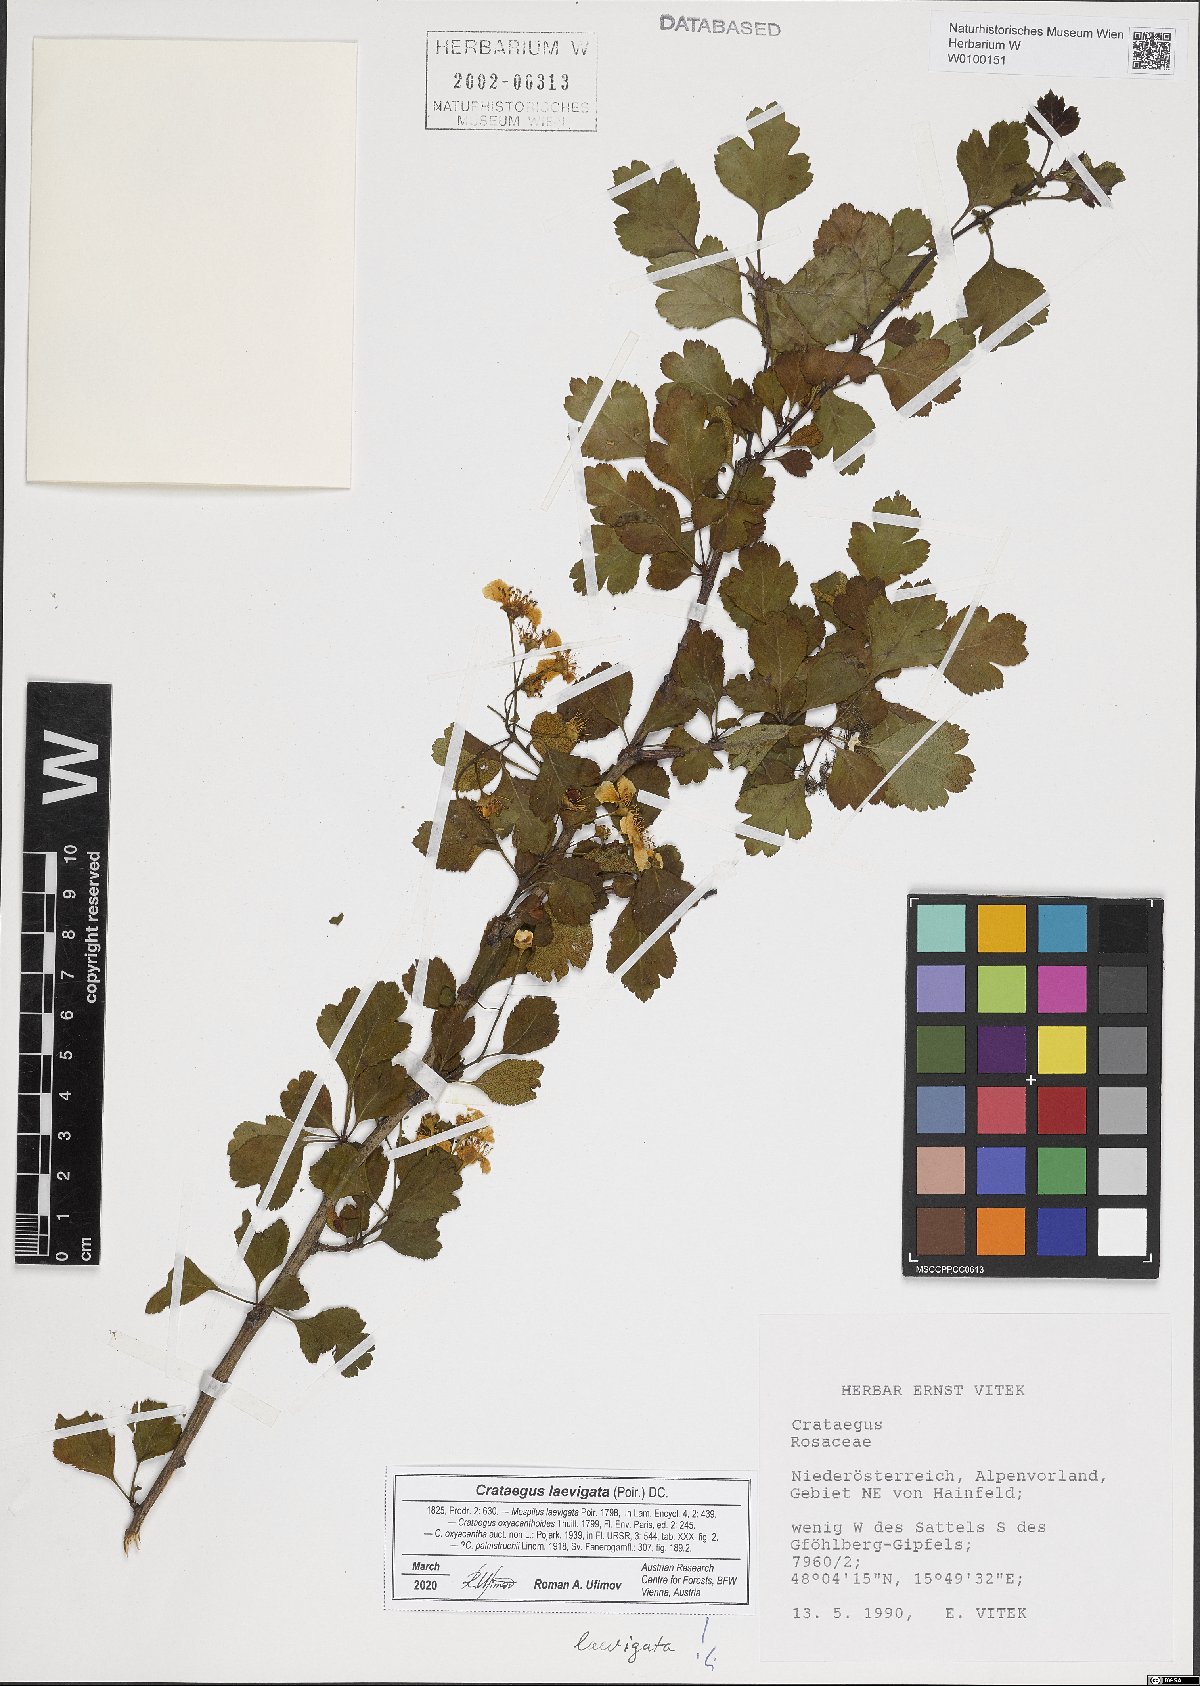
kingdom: Plantae
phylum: Tracheophyta
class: Magnoliopsida
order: Rosales
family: Rosaceae
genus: Crataegus
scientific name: Crataegus laevigata
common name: Midland hawthorn
